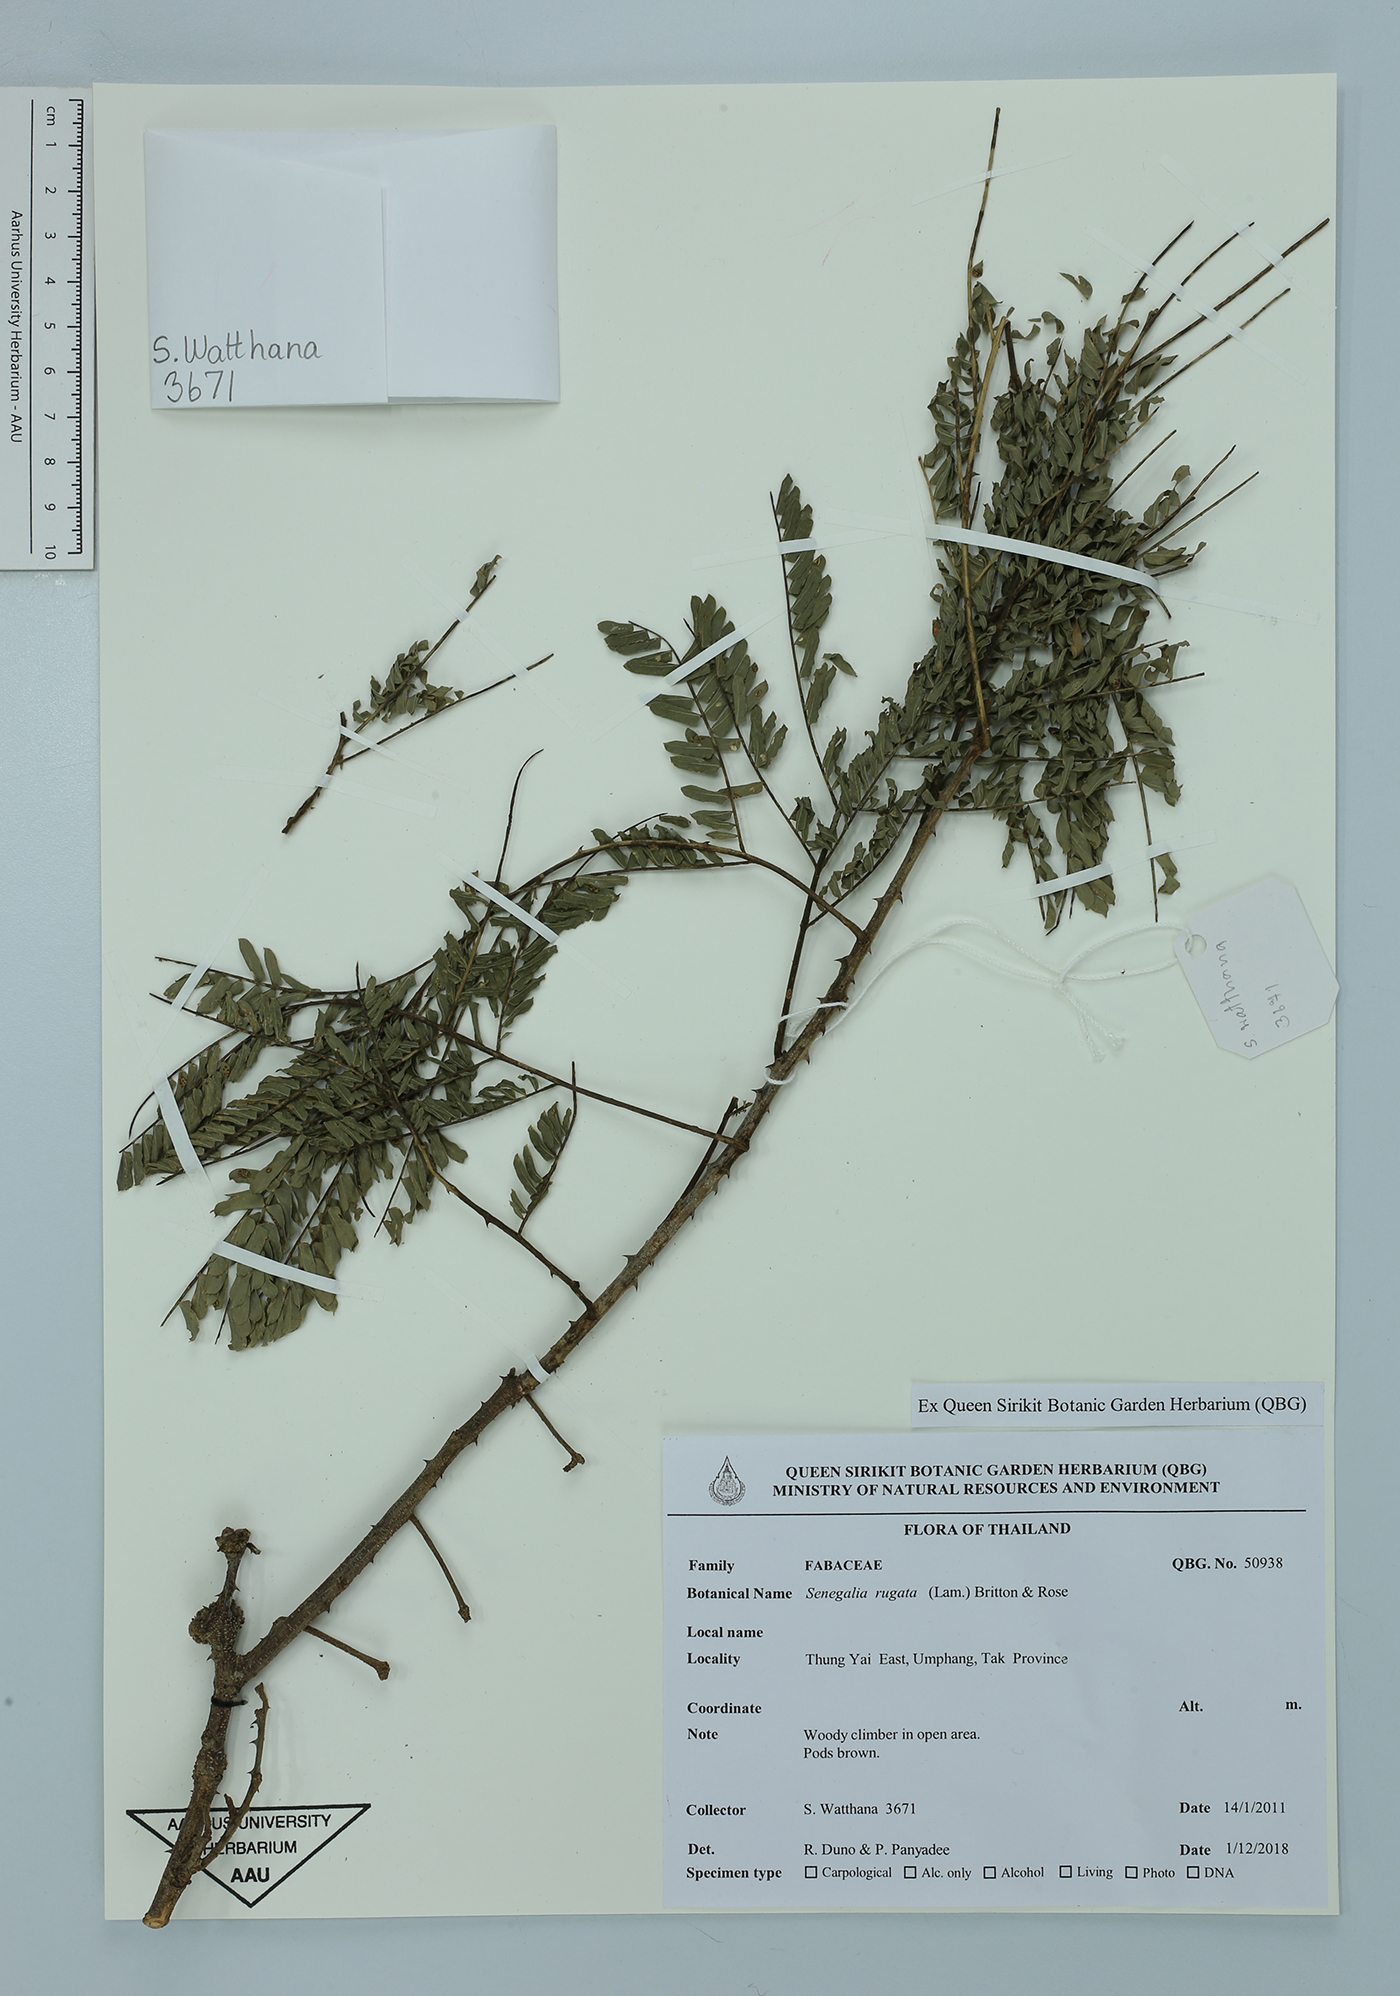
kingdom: Plantae
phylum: Tracheophyta
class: Magnoliopsida
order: Fabales
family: Fabaceae
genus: Senegalia
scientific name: Senegalia rugata
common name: Soap-pod
